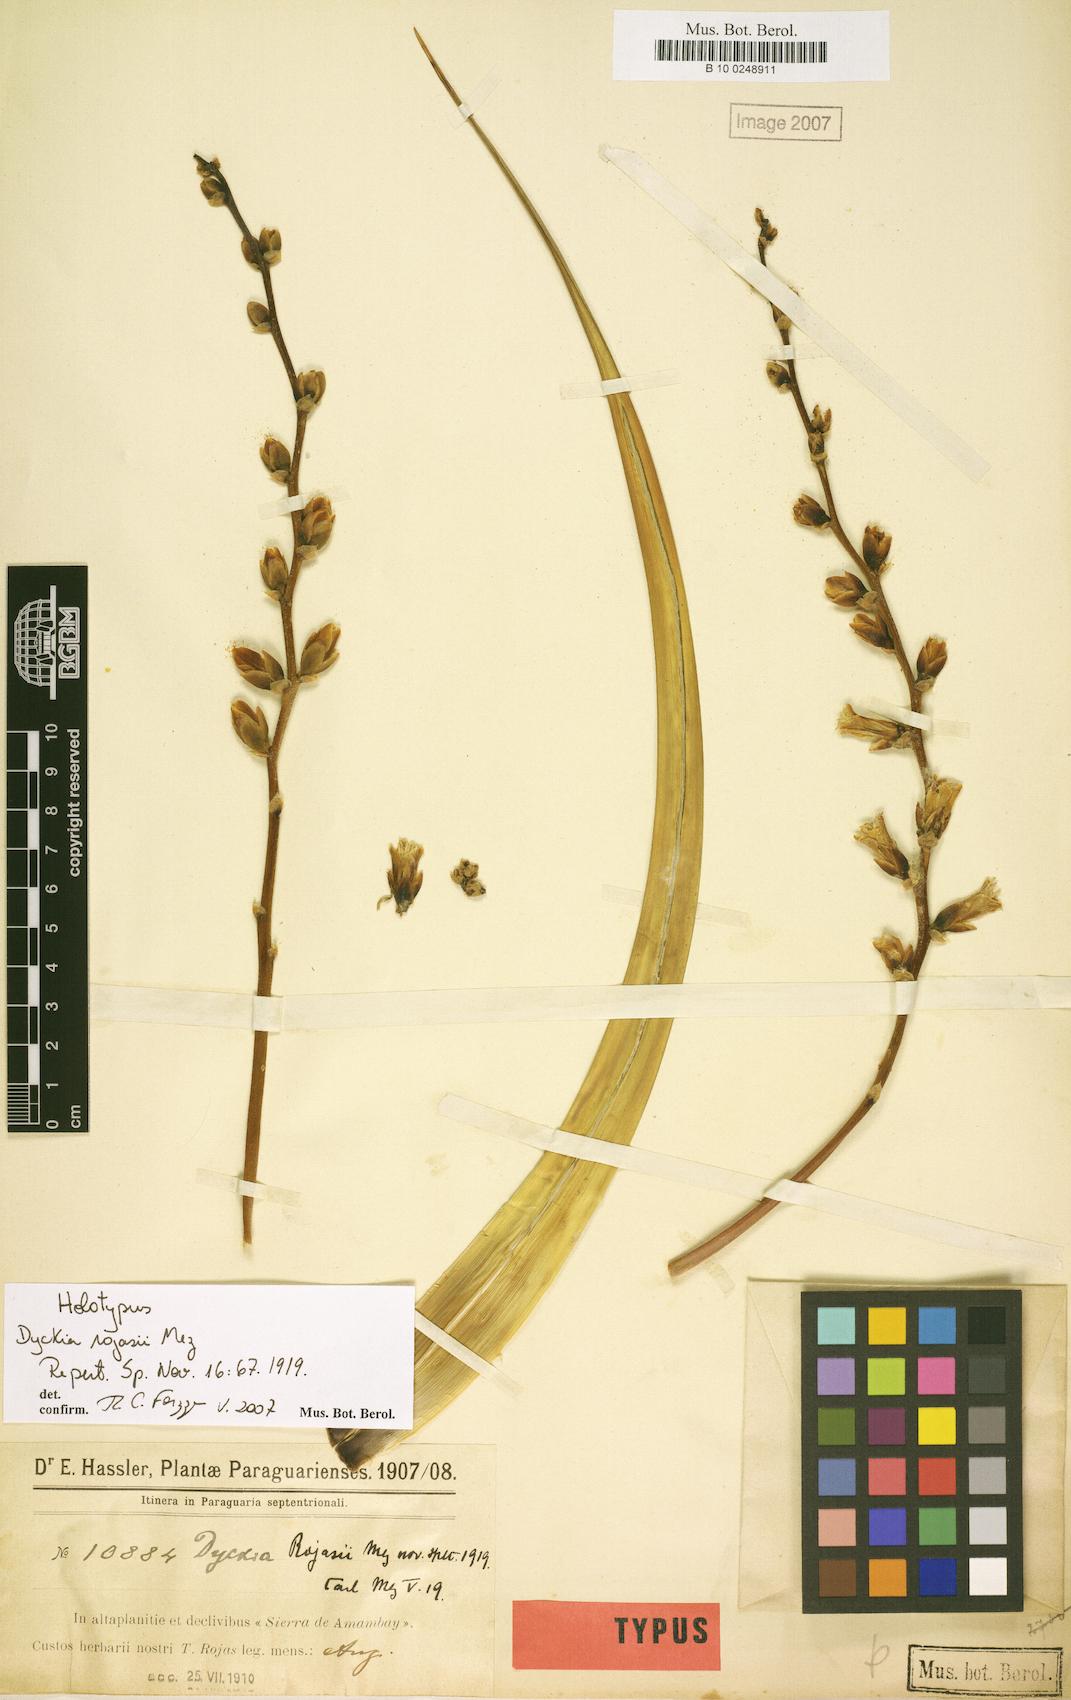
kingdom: Plantae
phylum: Tracheophyta
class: Liliopsida
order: Poales
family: Bromeliaceae
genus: Dyckia
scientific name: Dyckia leptostachya
